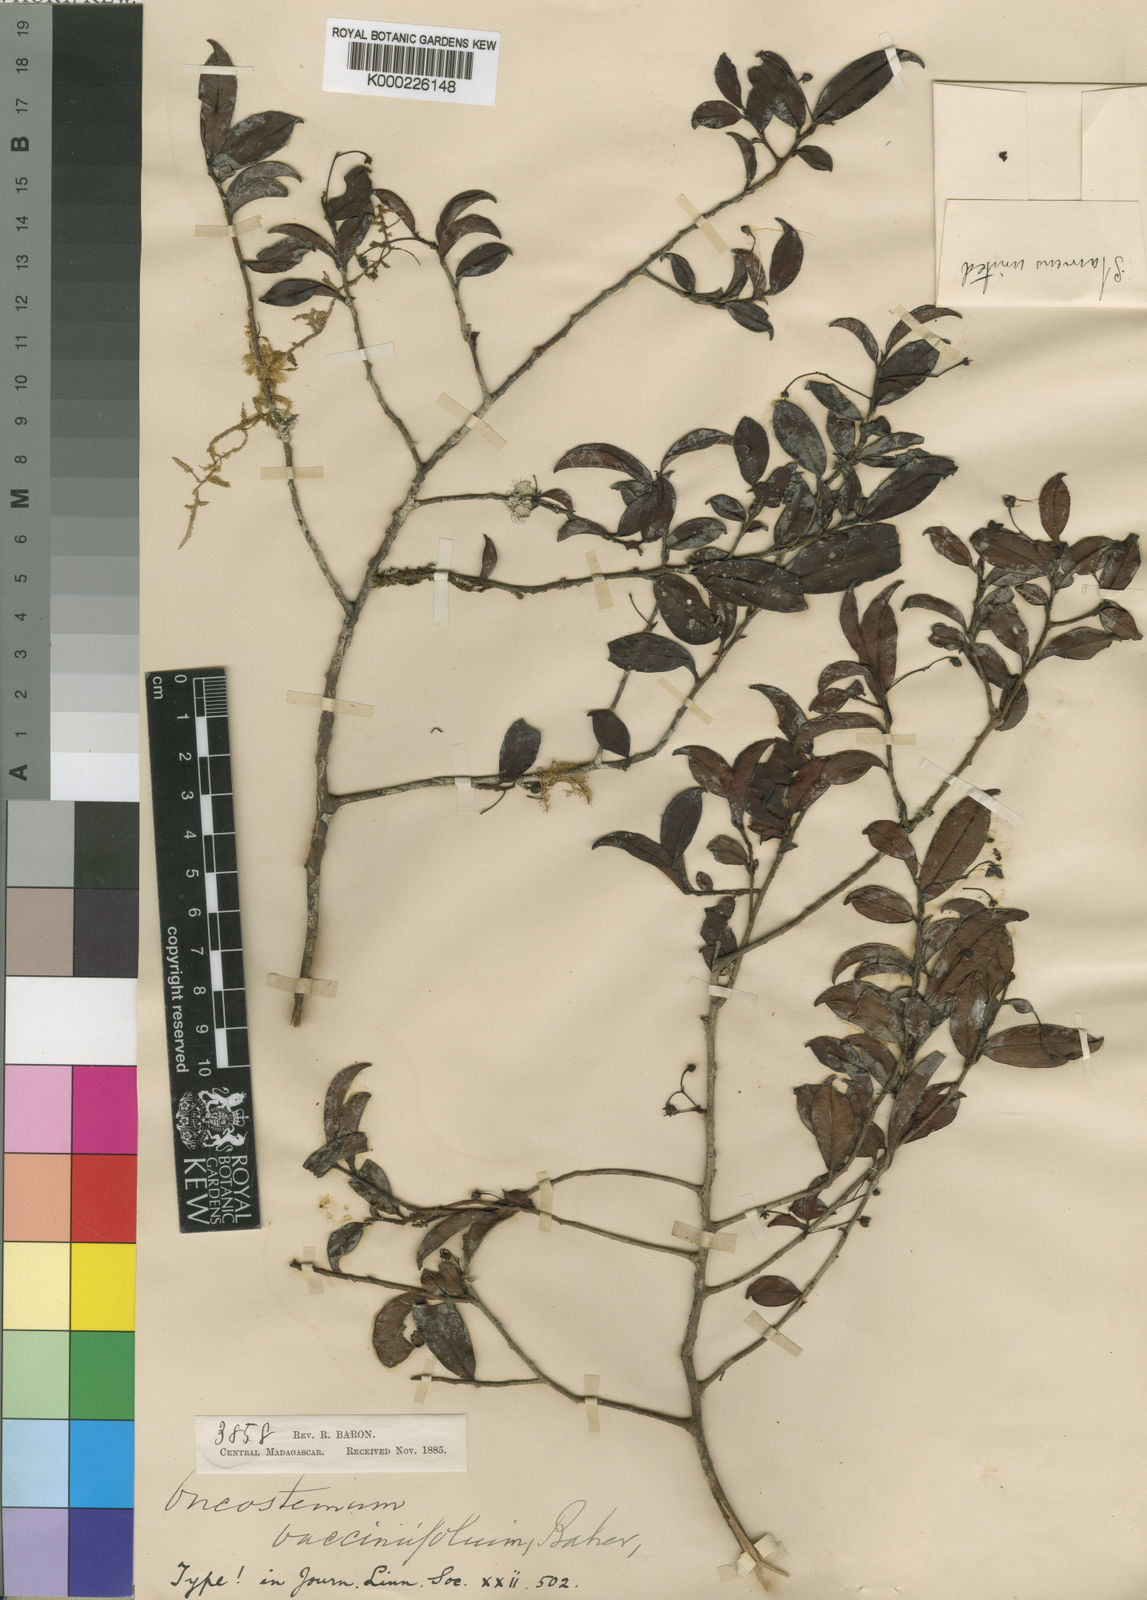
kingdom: Plantae
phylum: Tracheophyta
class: Magnoliopsida
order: Ericales
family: Primulaceae
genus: Oncostemum
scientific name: Oncostemum vacciniifolium
